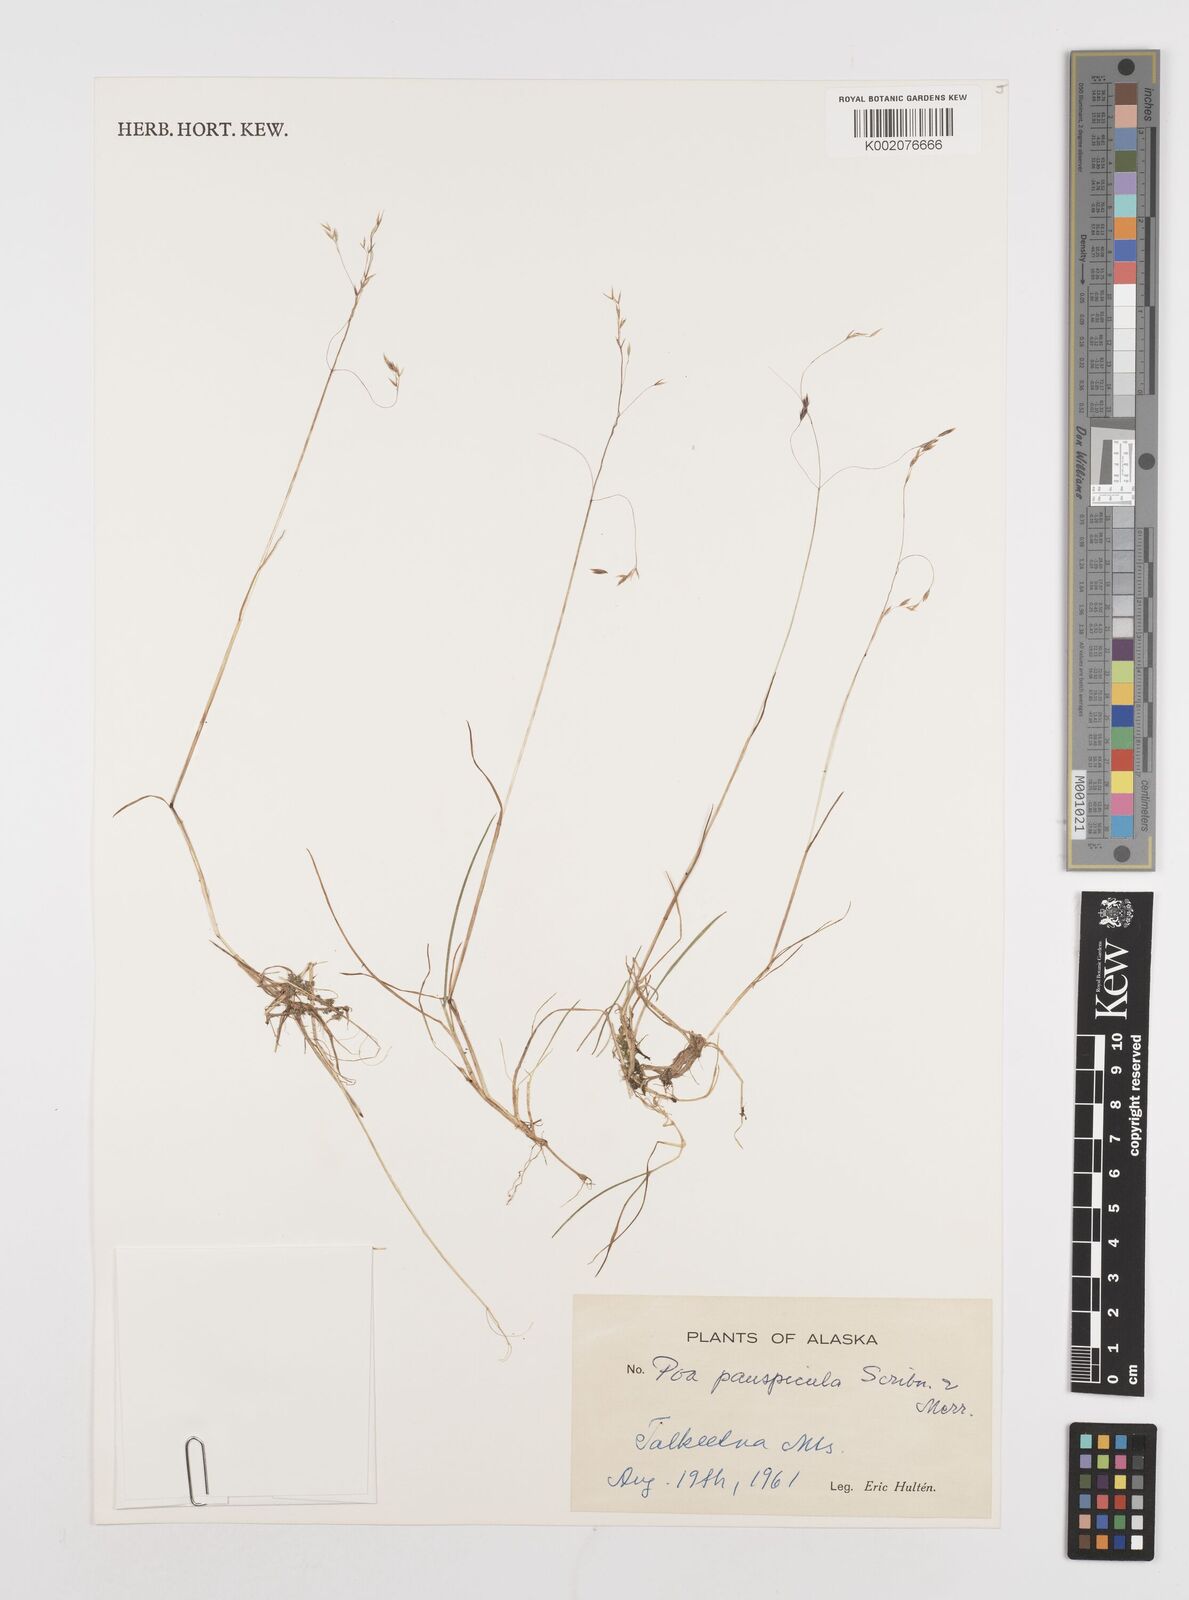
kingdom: Plantae
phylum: Tracheophyta
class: Liliopsida
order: Poales
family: Poaceae
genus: Poa
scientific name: Poa paucispicula
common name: Alaska bluegrass
